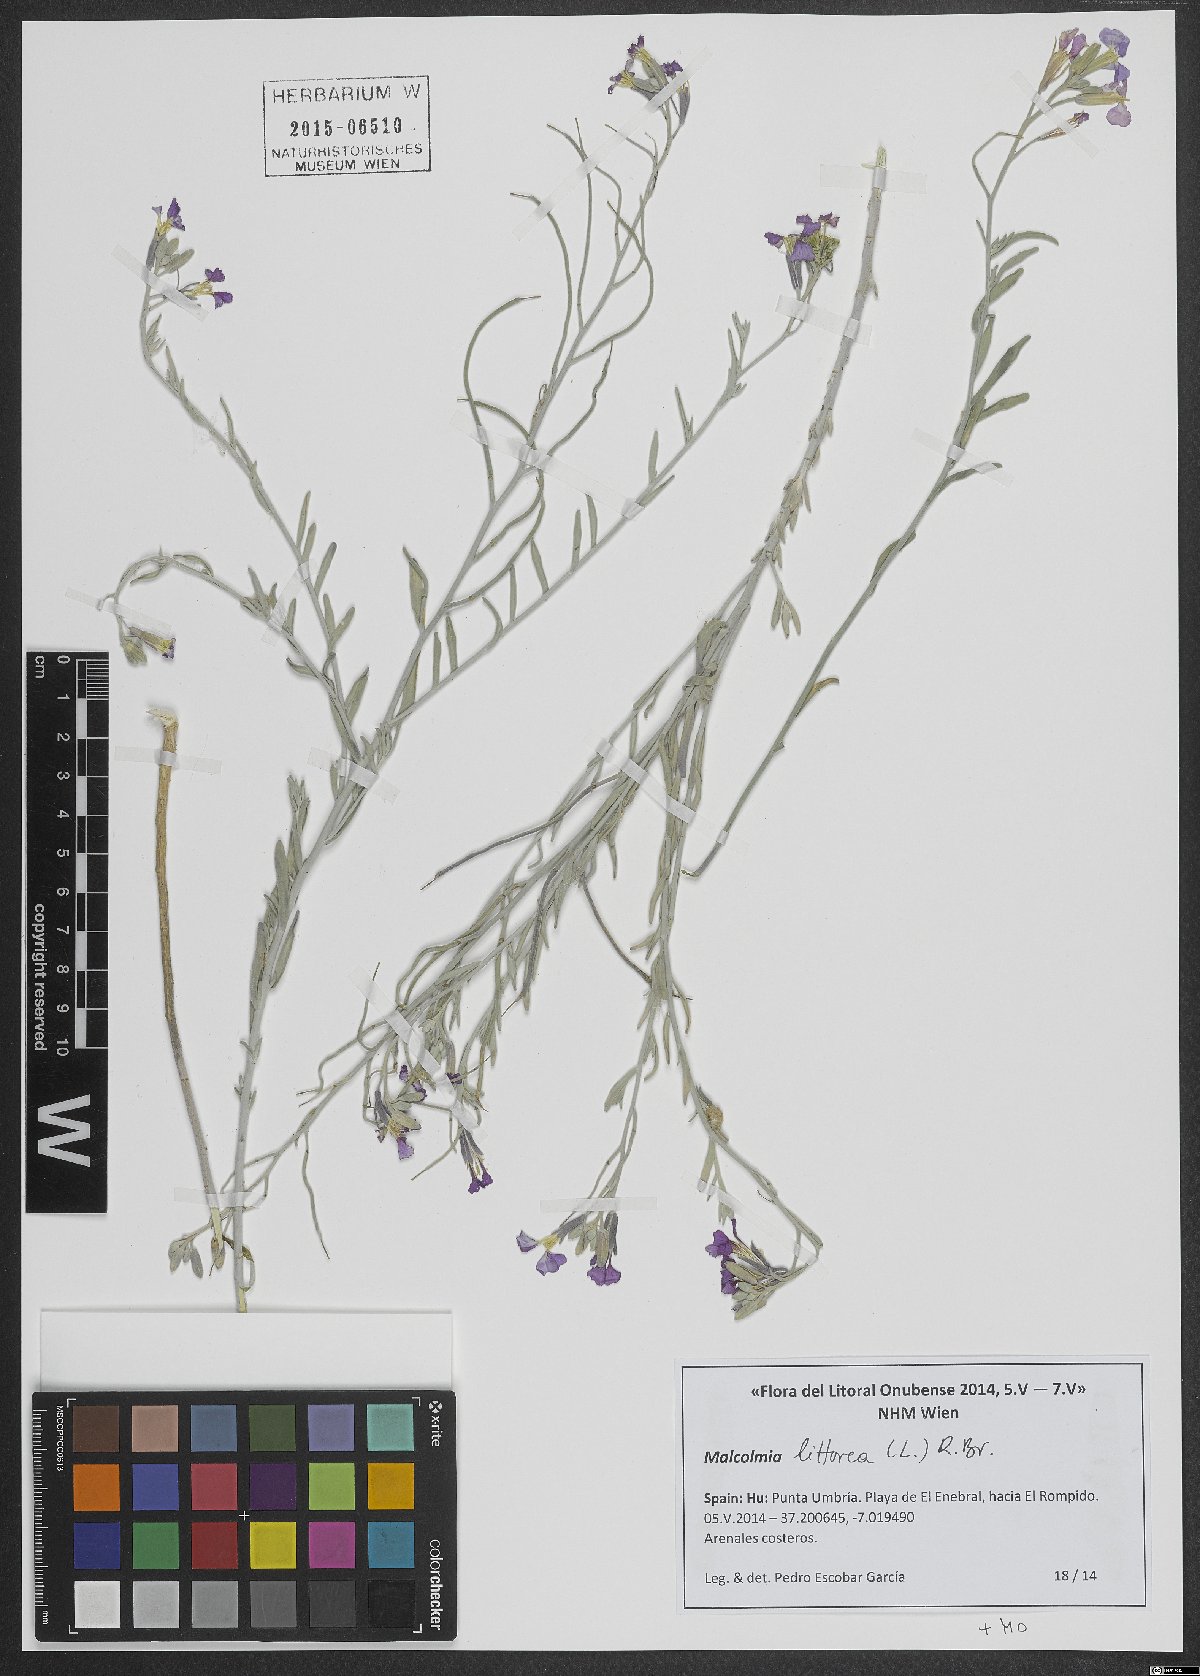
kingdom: Plantae
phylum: Tracheophyta
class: Magnoliopsida
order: Brassicales
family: Brassicaceae
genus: Marcuskochia
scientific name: Marcuskochia littorea
